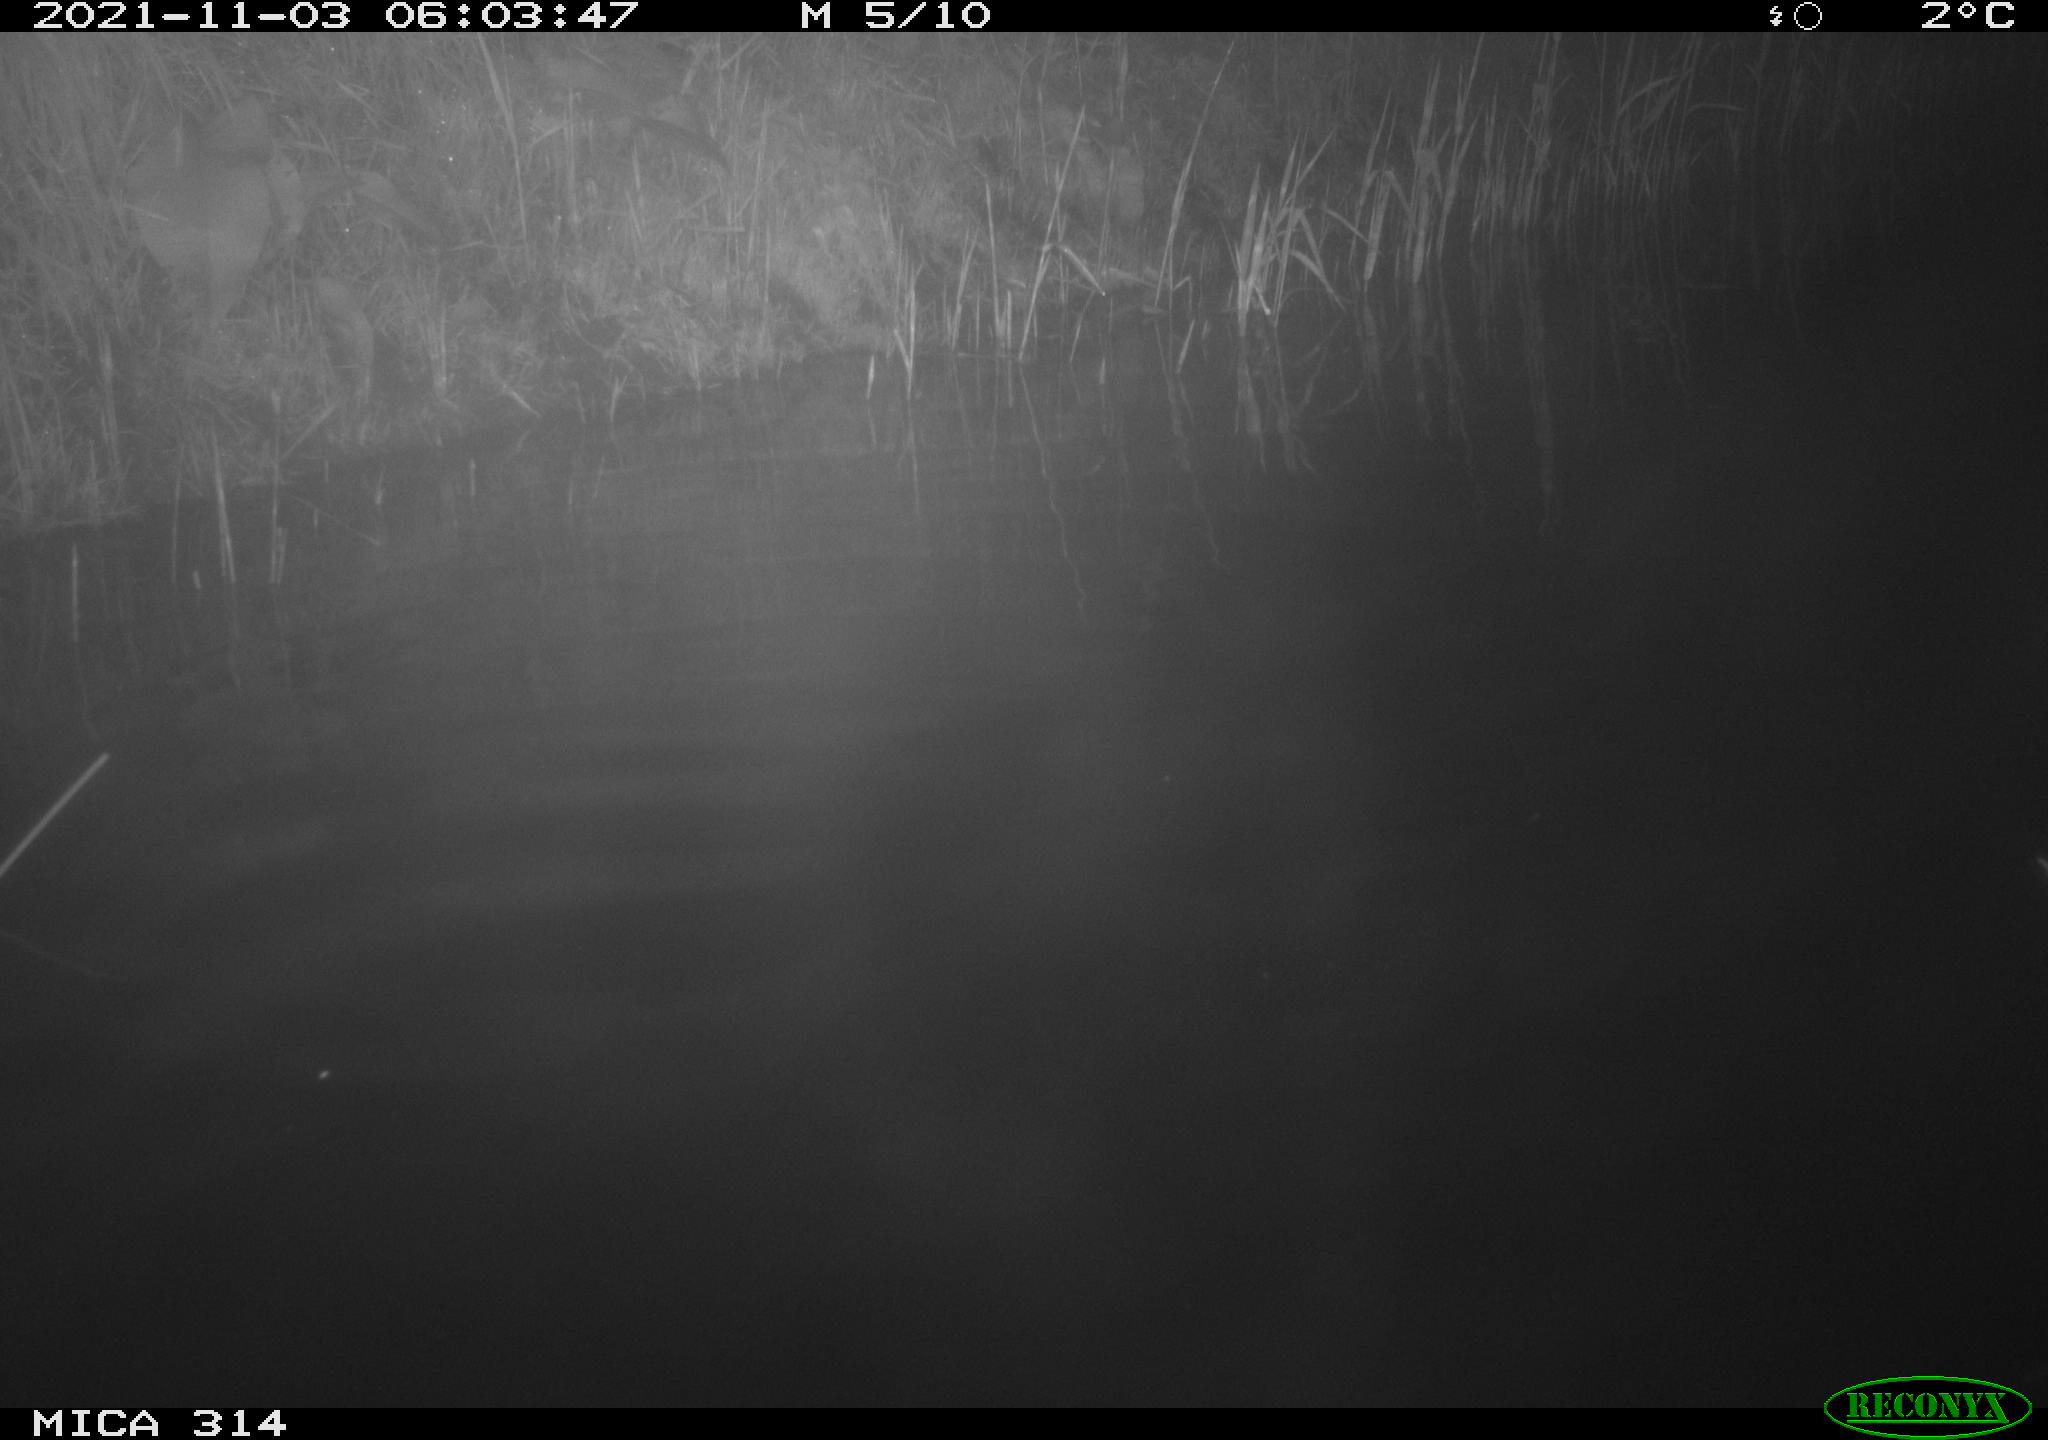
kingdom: Animalia
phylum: Chordata
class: Mammalia
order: Rodentia
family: Muridae
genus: Rattus
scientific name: Rattus norvegicus
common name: Brown rat
